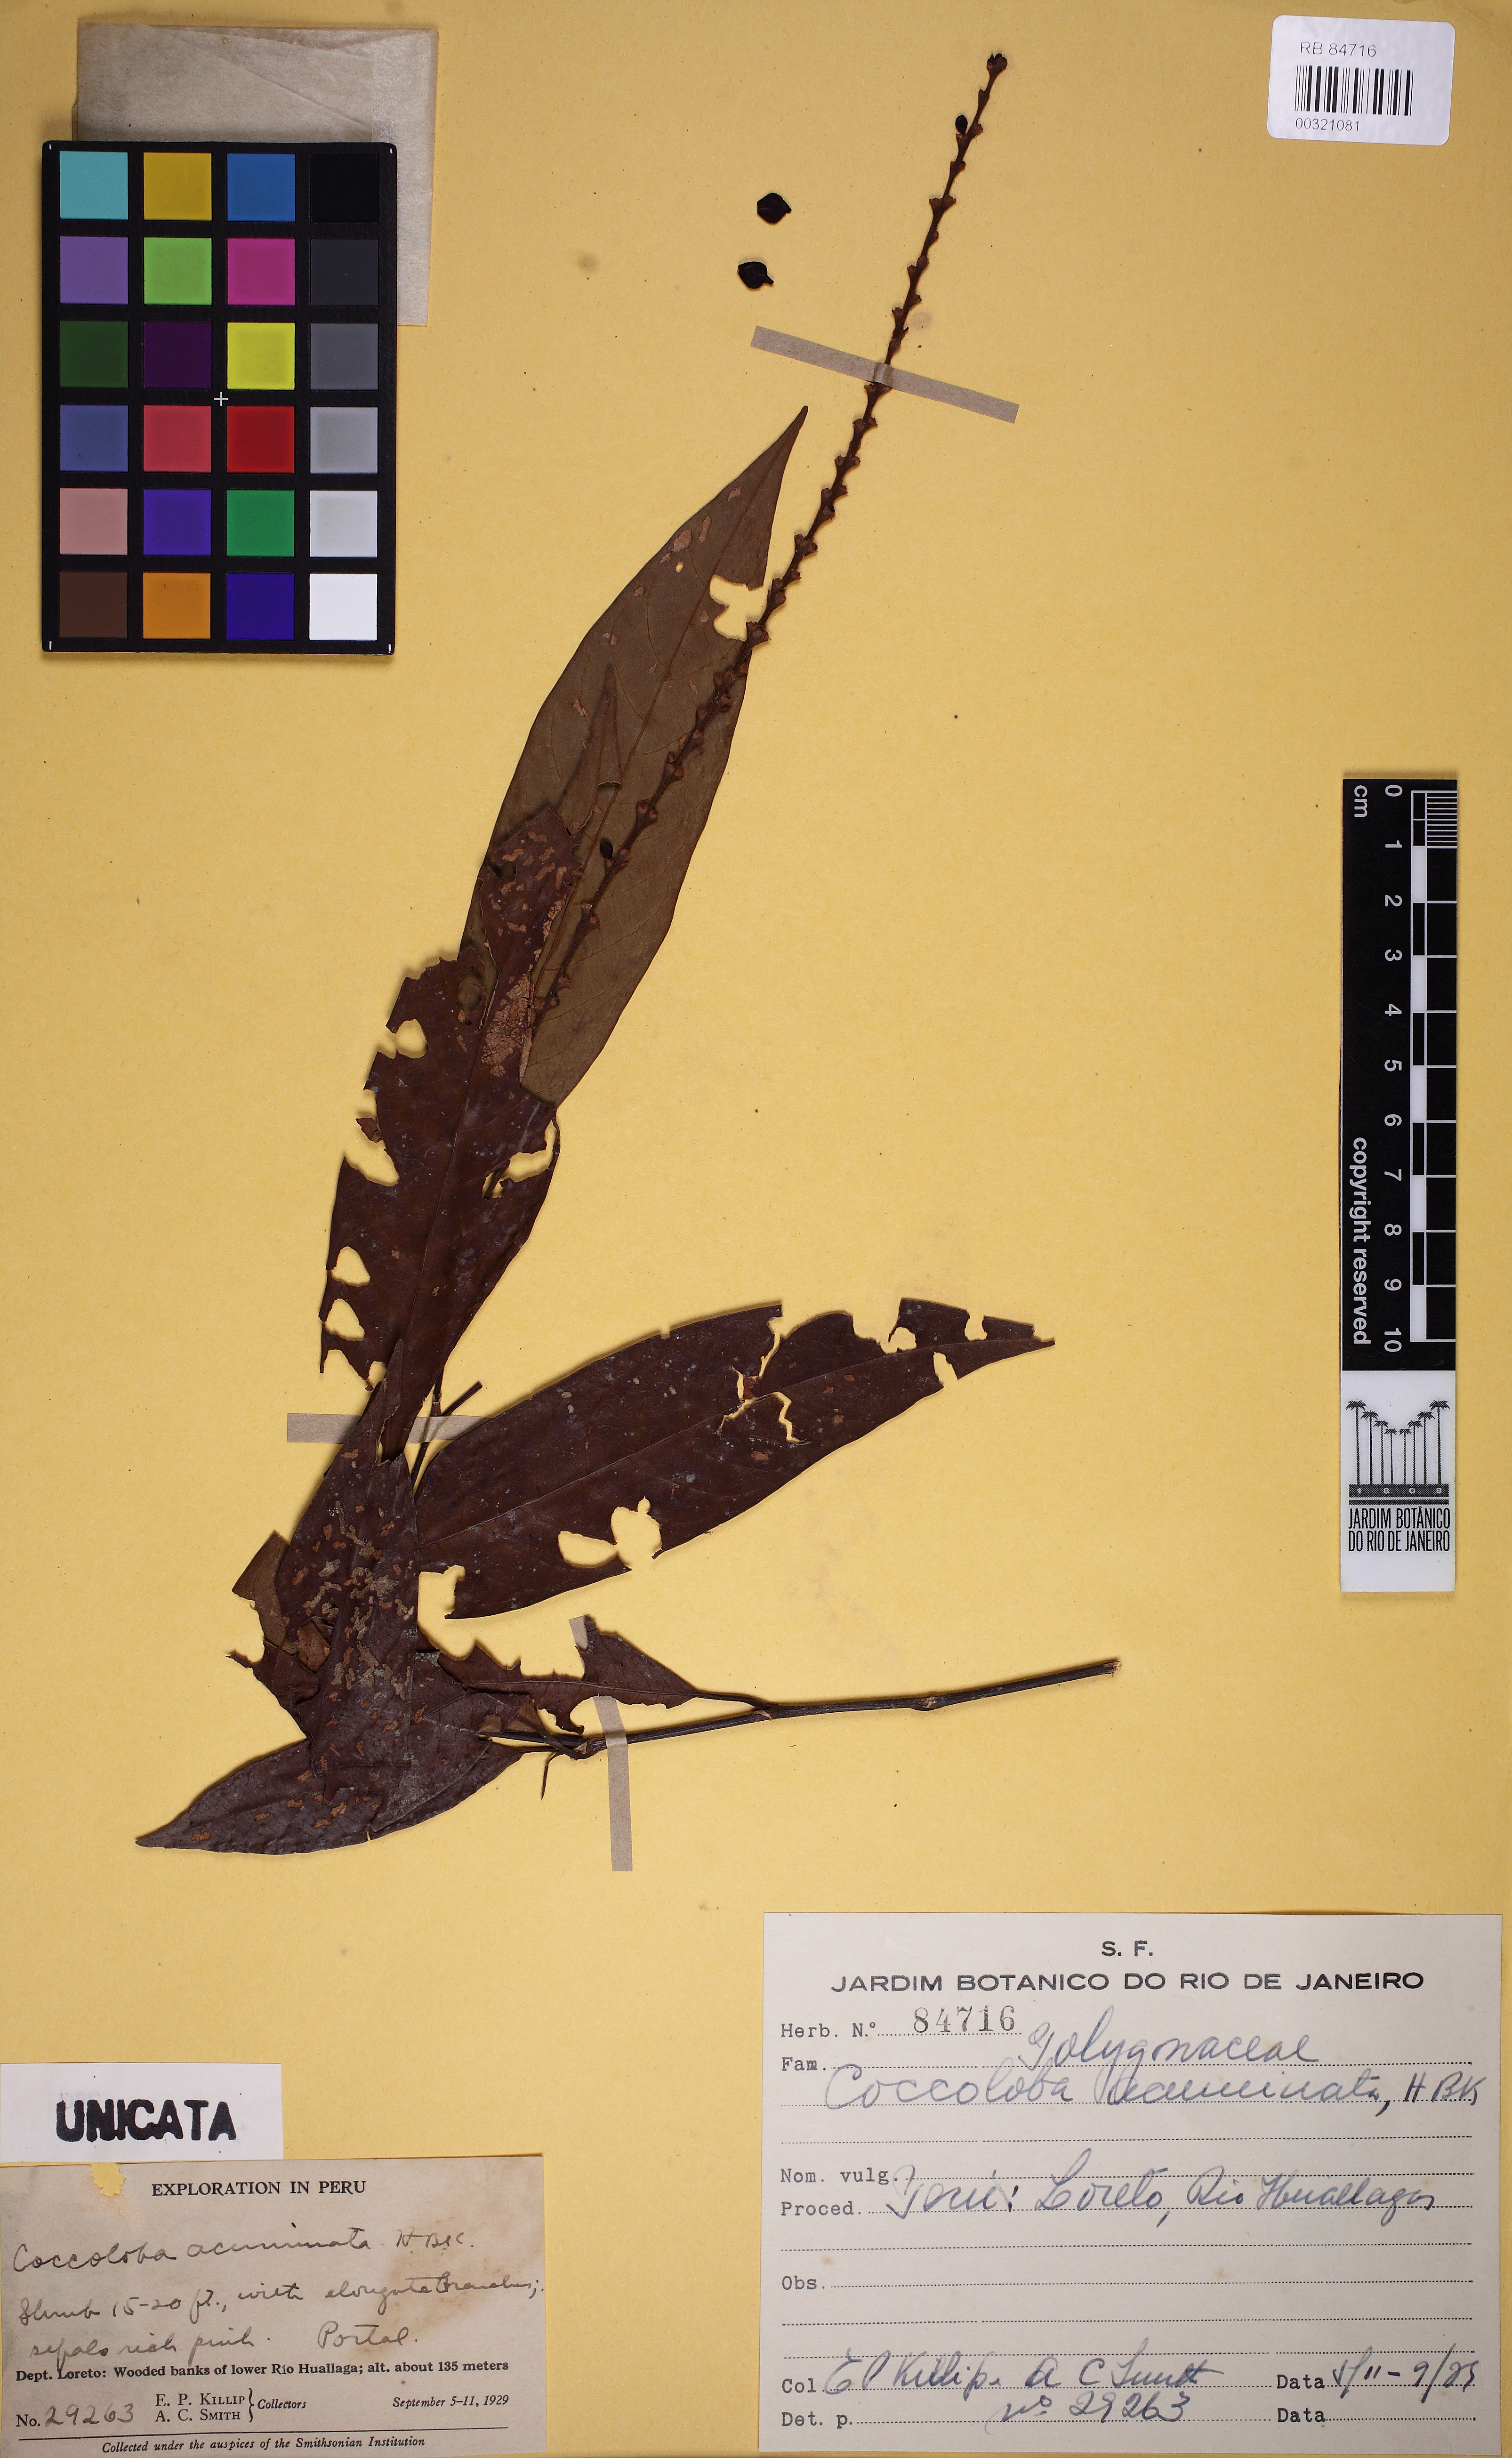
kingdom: Plantae
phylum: Tracheophyta
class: Magnoliopsida
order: Caryophyllales
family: Polygonaceae
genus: Coccoloba
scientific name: Coccoloba acuminata
